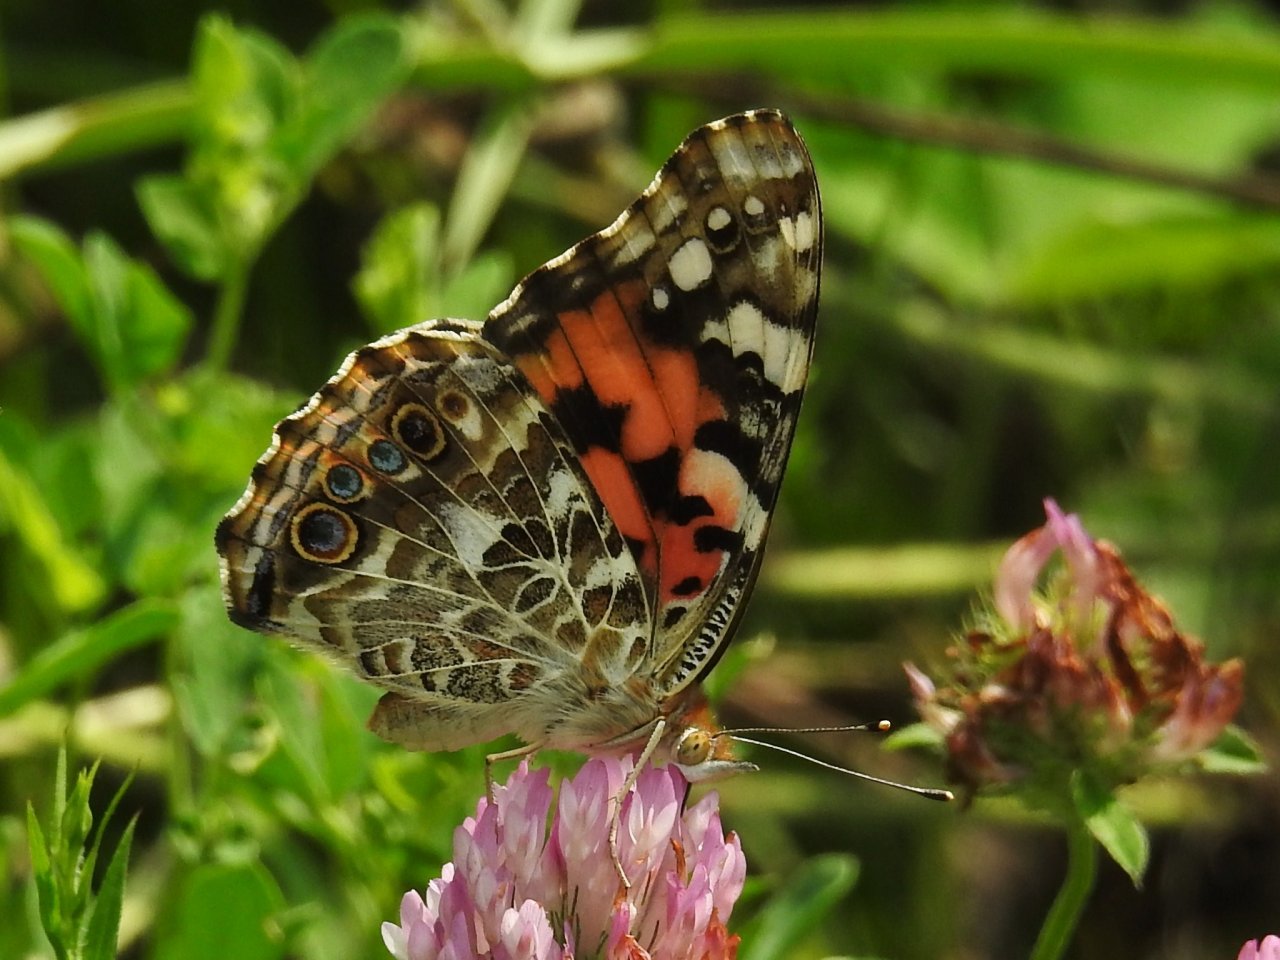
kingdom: Animalia
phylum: Arthropoda
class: Insecta
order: Lepidoptera
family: Nymphalidae
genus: Vanessa
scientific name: Vanessa cardui
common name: Painted Lady
